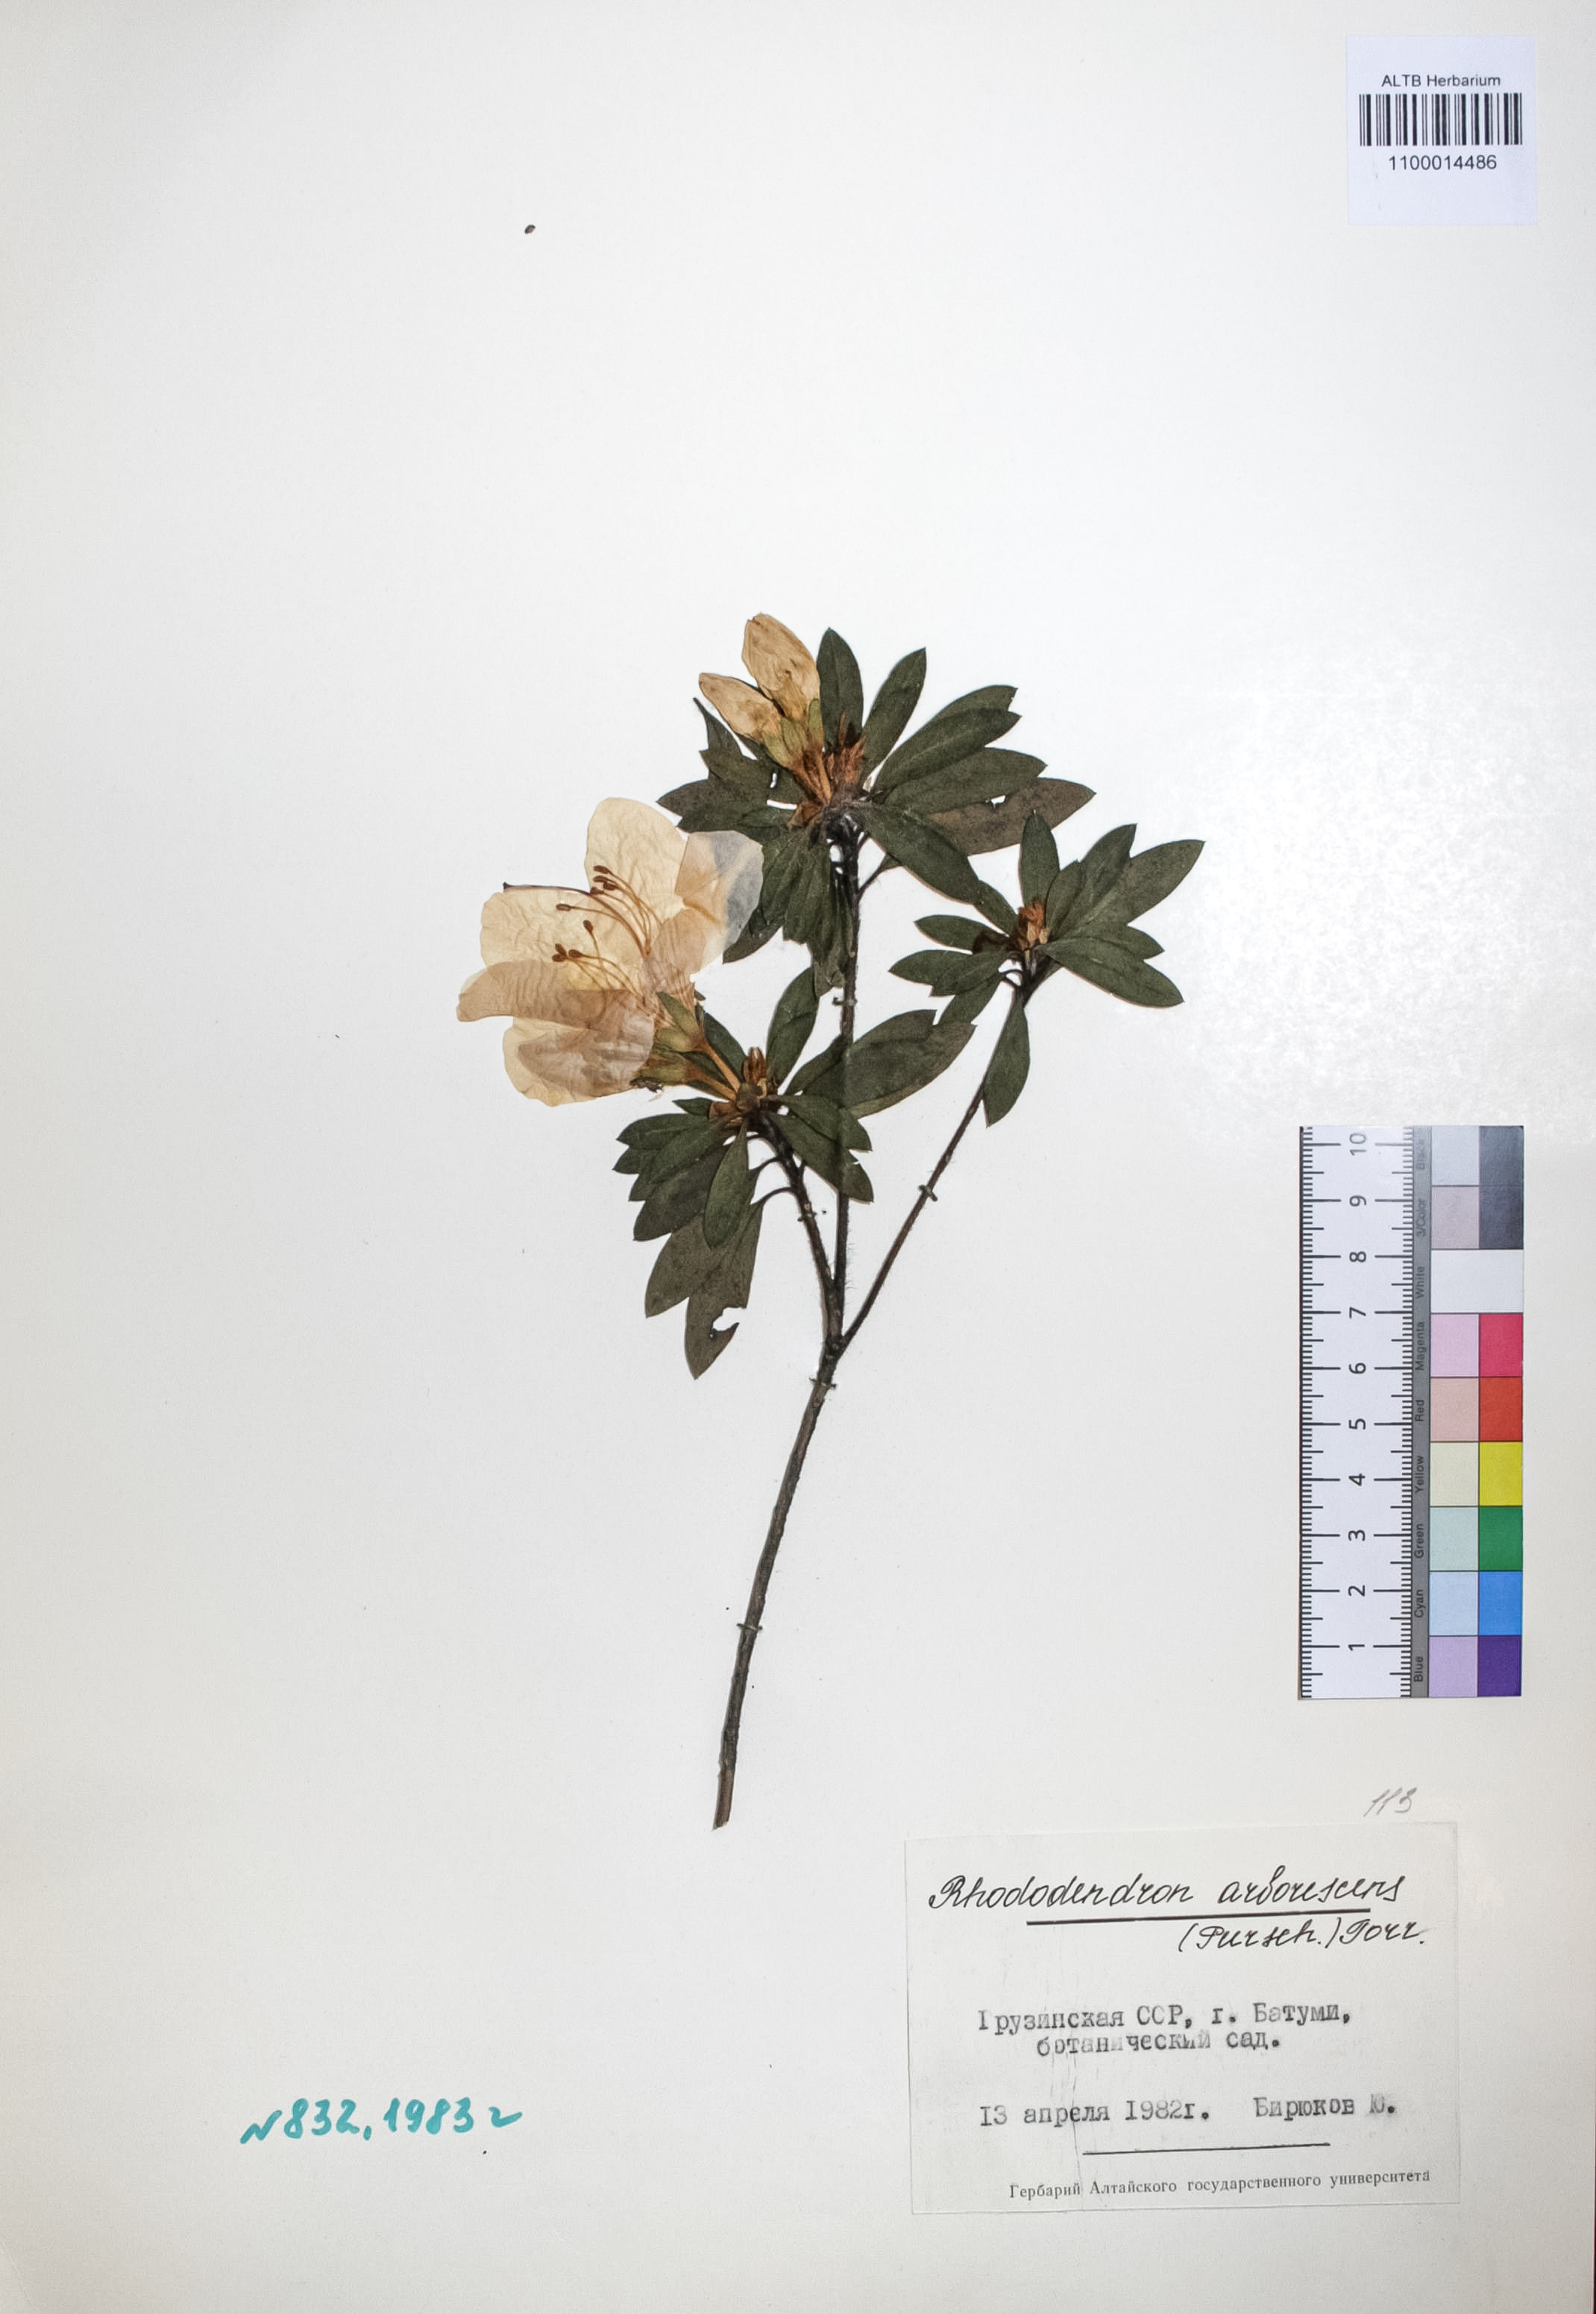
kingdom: Plantae
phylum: Tracheophyta
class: Magnoliopsida
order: Ericales
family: Ericaceae
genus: Rhododendron
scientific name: Rhododendron arborescens
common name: Sweet azalea
